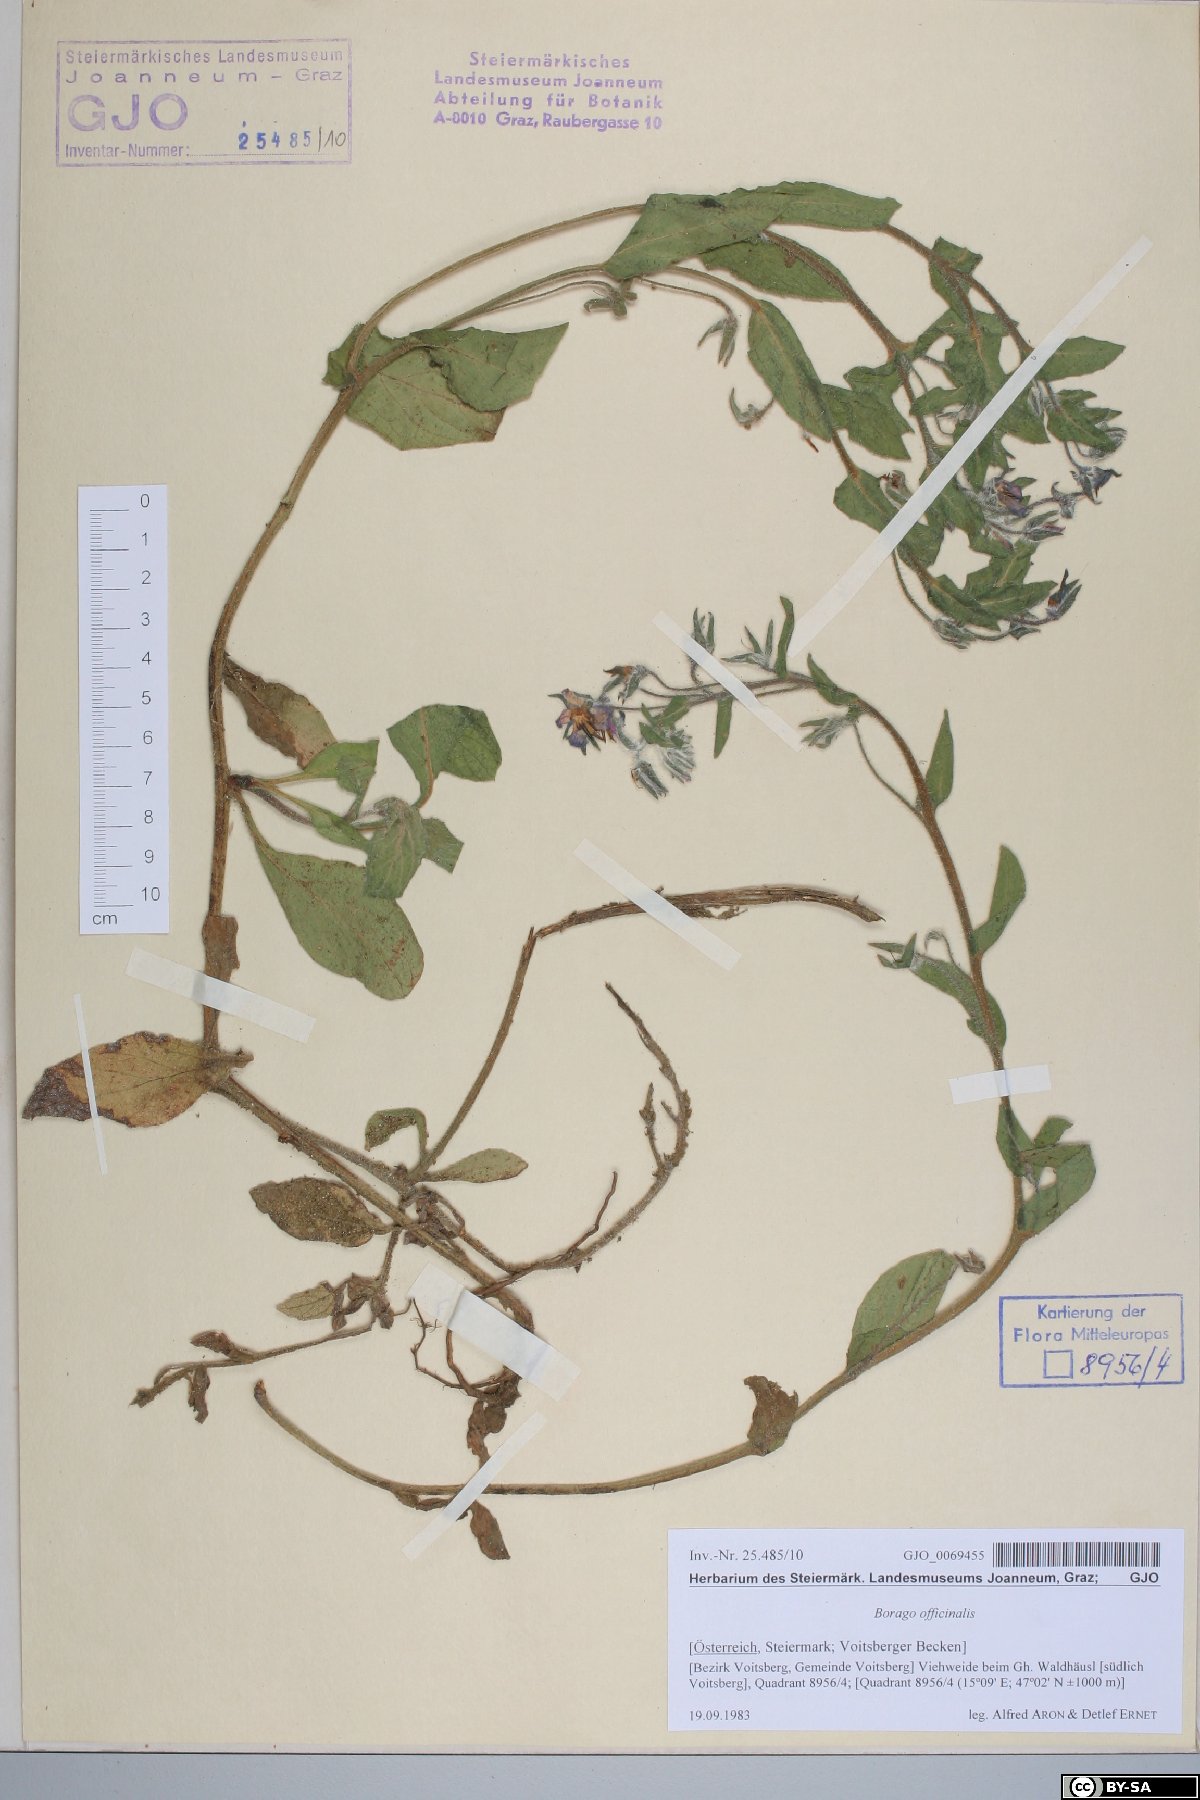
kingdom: Plantae
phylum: Tracheophyta
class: Magnoliopsida
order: Boraginales
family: Boraginaceae
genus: Borago
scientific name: Borago officinalis
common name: Borage
